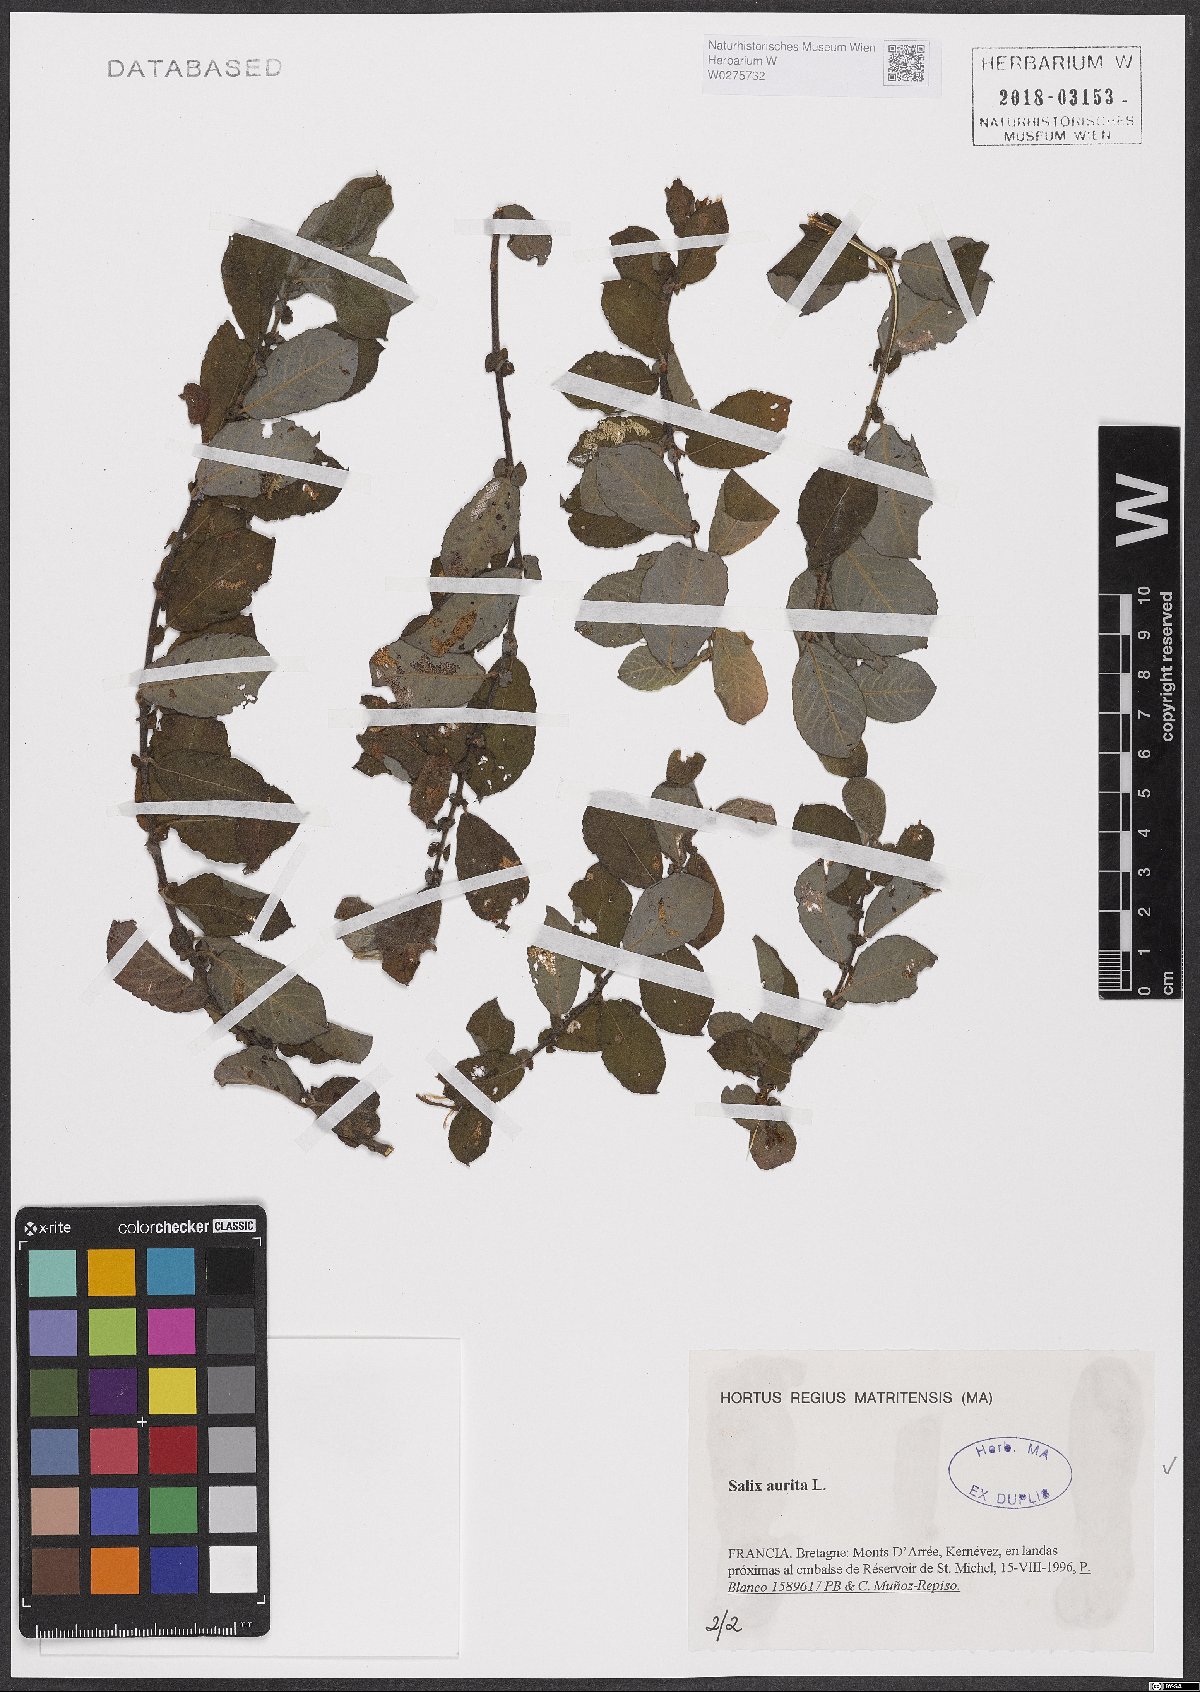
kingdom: Plantae
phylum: Tracheophyta
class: Magnoliopsida
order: Malpighiales
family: Salicaceae
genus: Salix
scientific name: Salix aurita
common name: Eared willow
